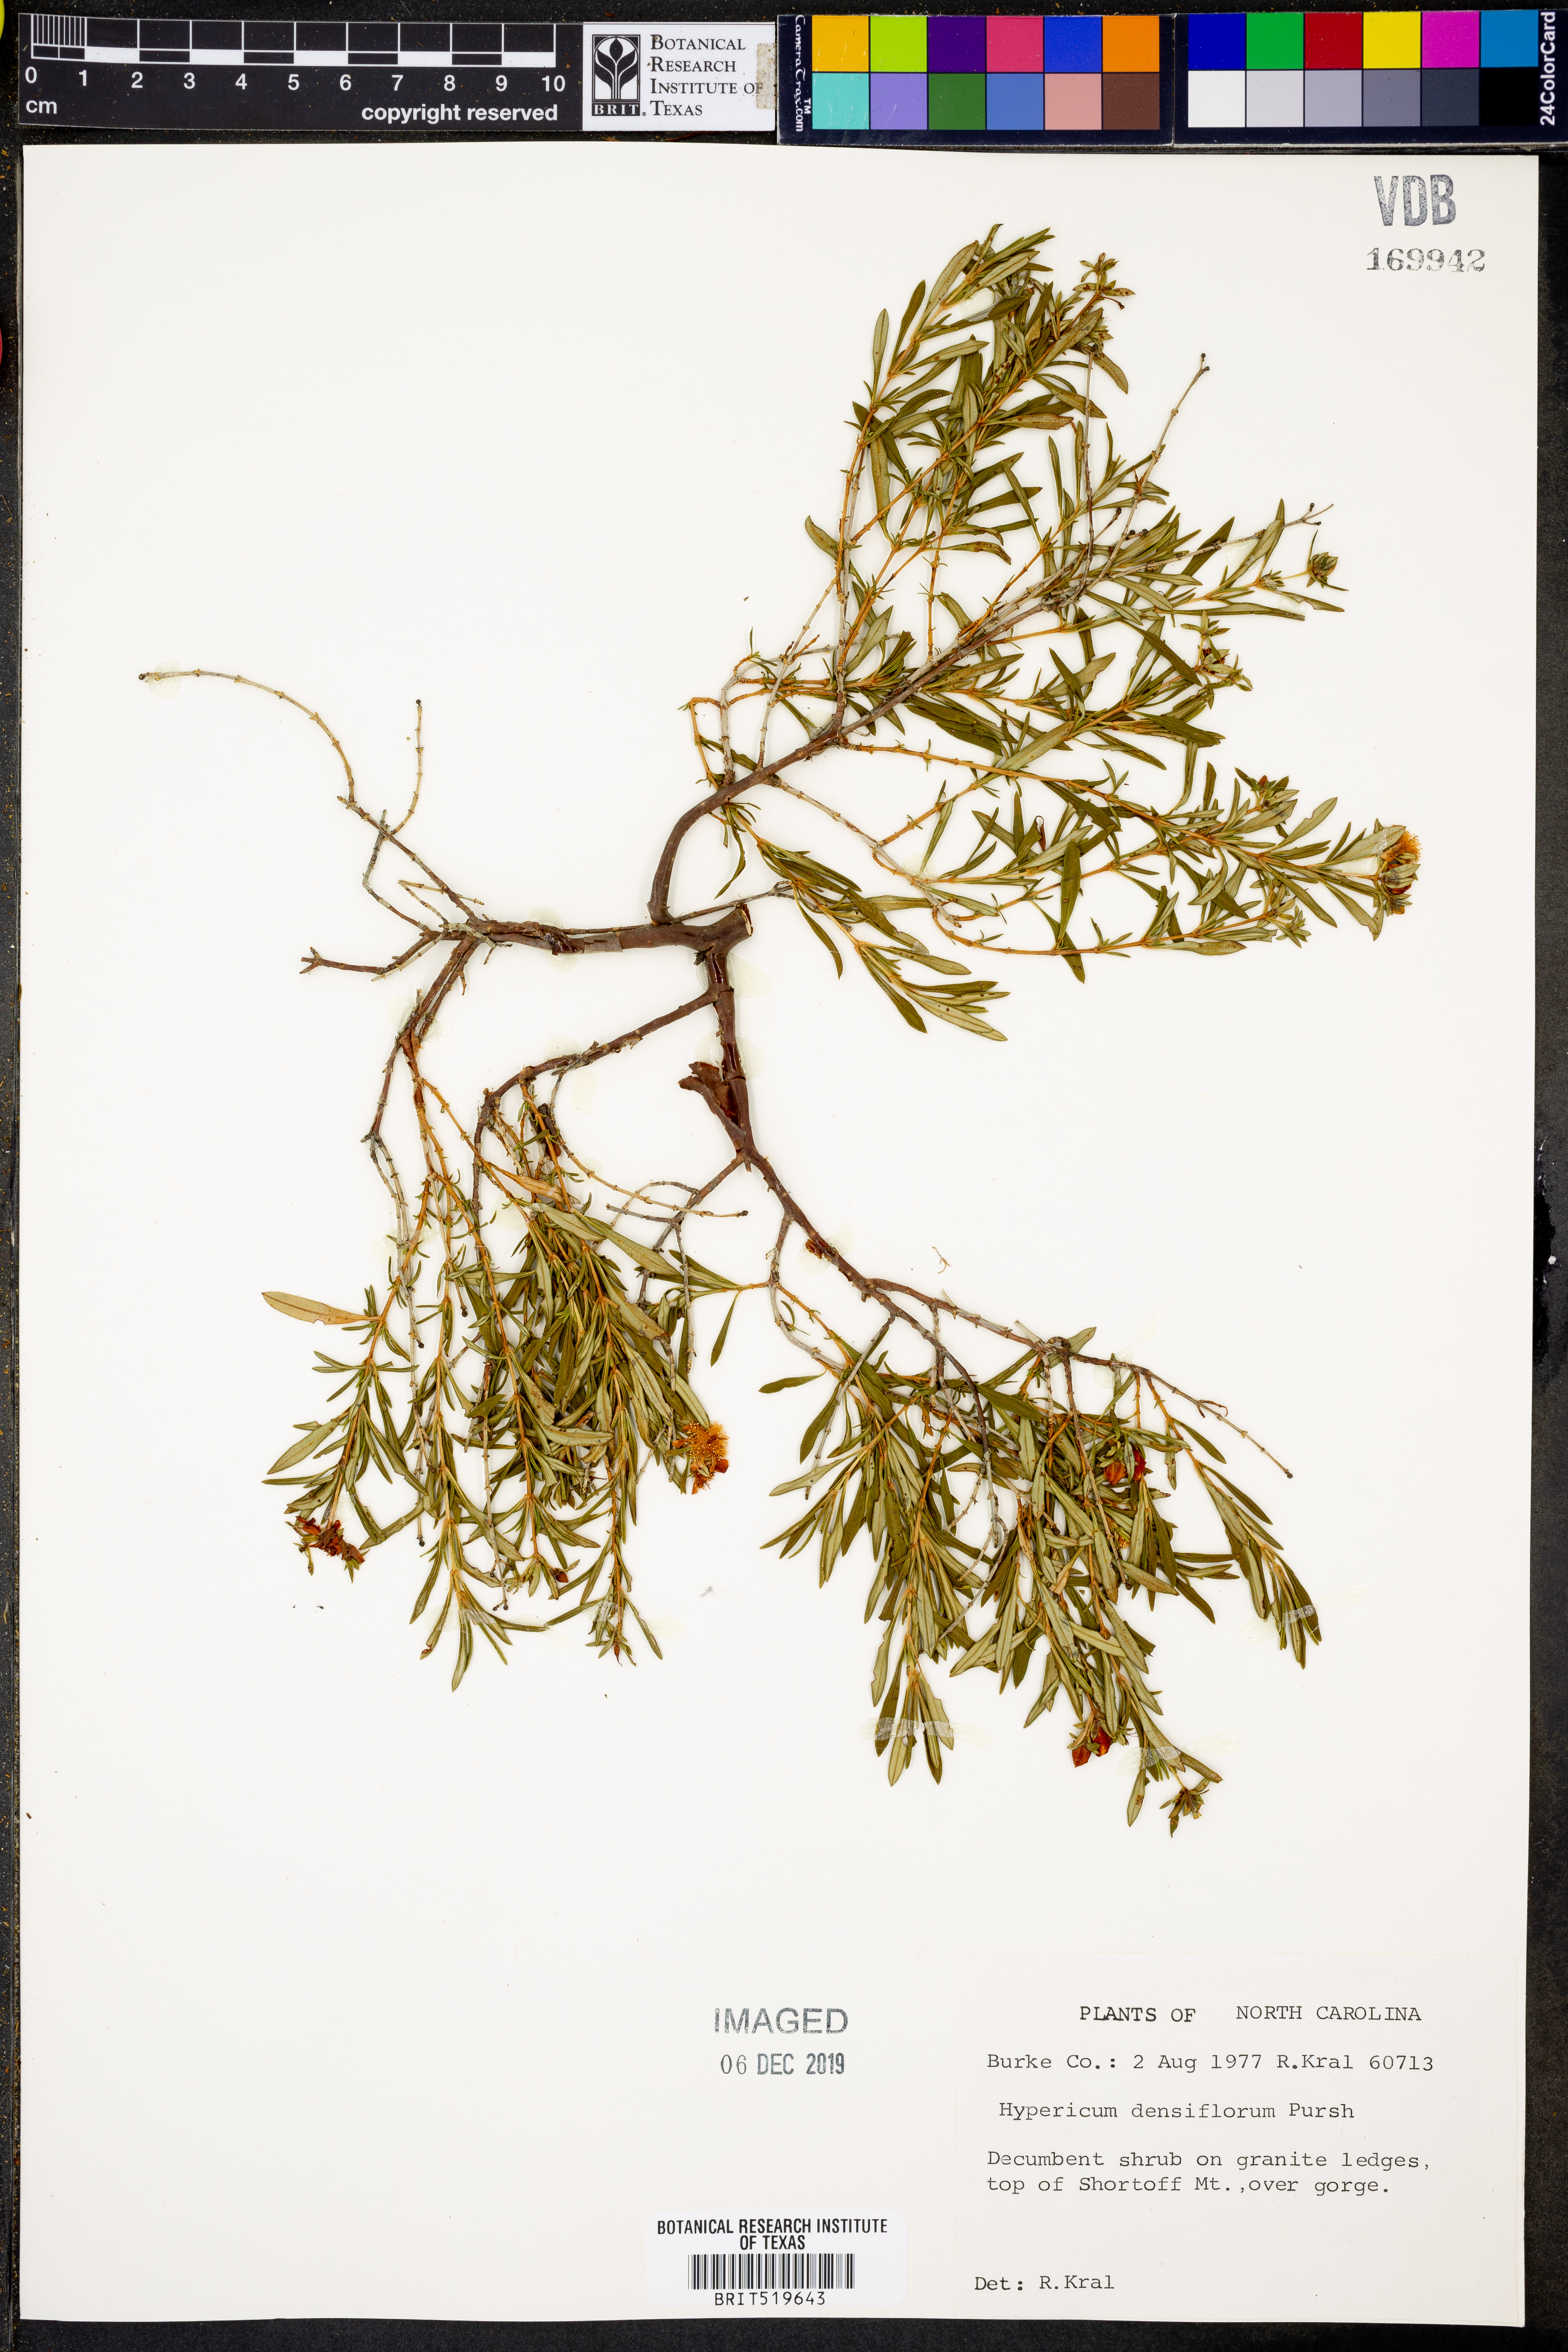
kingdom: Plantae
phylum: Tracheophyta
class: Magnoliopsida
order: Malpighiales
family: Hypericaceae
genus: Hypericum
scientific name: Hypericum densiflorum
